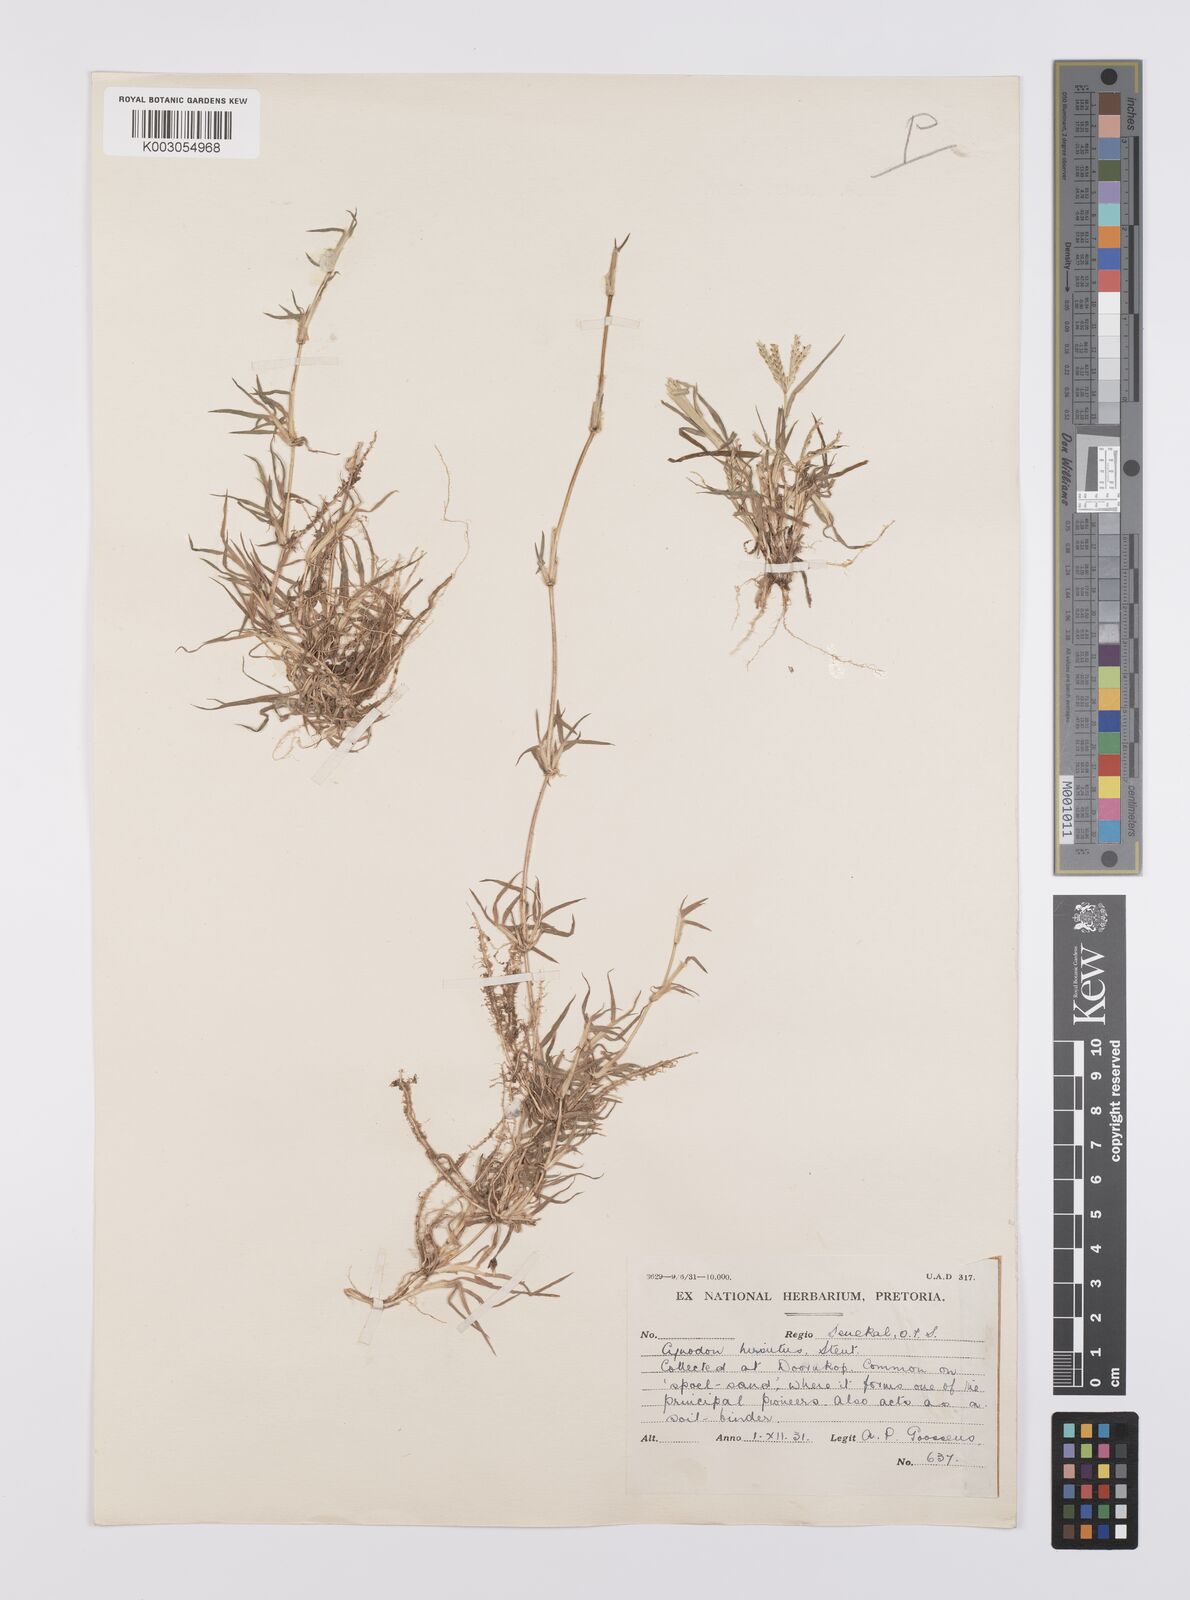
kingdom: Plantae
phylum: Tracheophyta
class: Liliopsida
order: Poales
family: Poaceae
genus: Cynodon
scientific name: Cynodon incompletus
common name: African bermuda-grass
